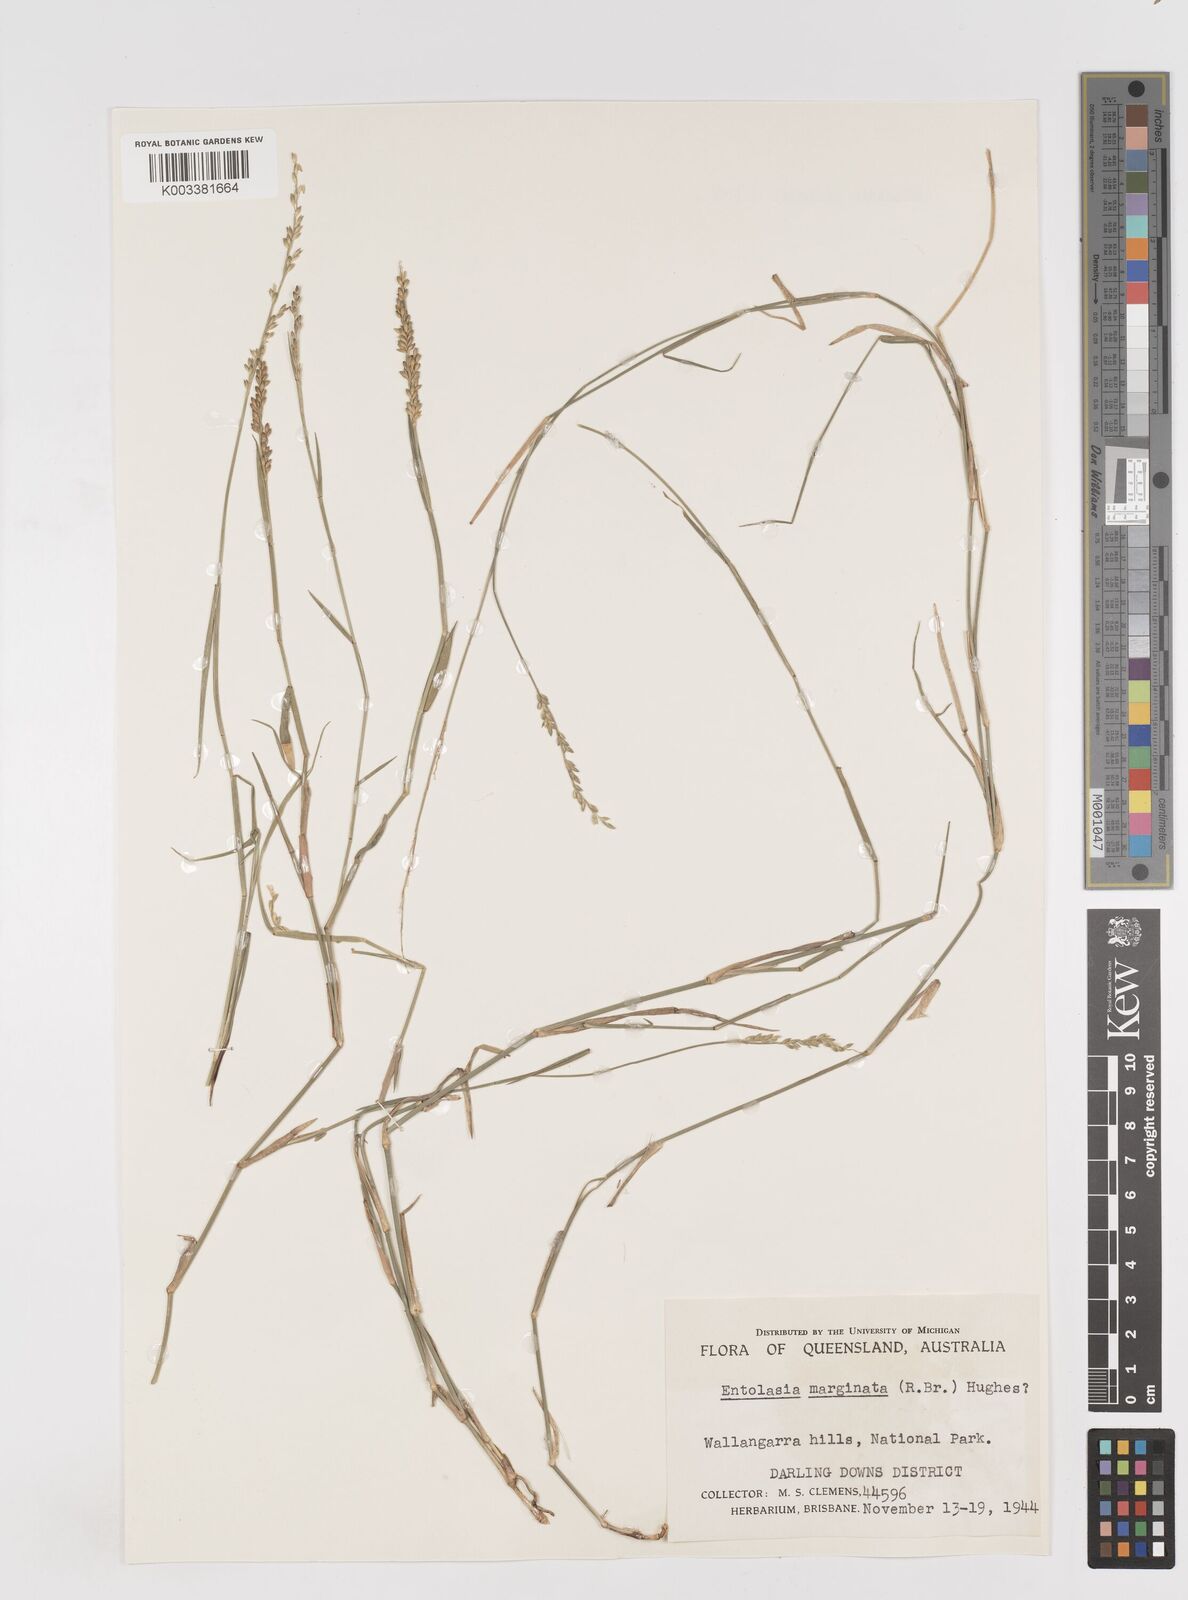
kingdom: Plantae
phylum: Tracheophyta
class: Liliopsida
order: Poales
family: Poaceae
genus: Entolasia
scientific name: Entolasia marginata
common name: Australian panicgrass
